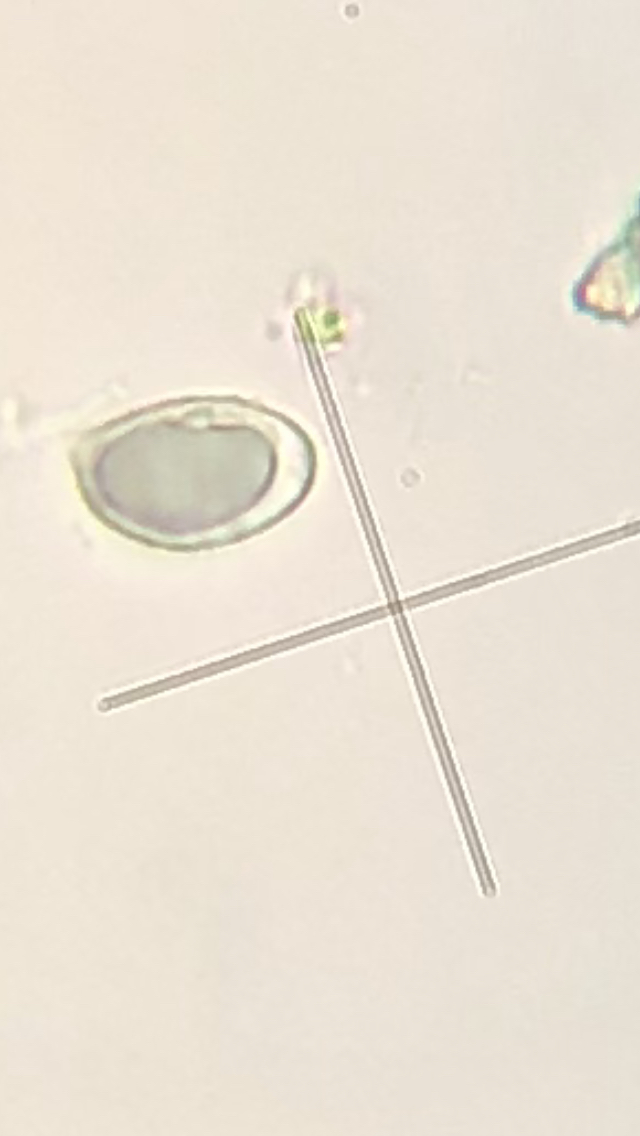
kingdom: Fungi
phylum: Basidiomycota
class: Agaricomycetes
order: Agaricales
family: Tricholomataceae
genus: Melanoleuca
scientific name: Melanoleuca
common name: munkehat
